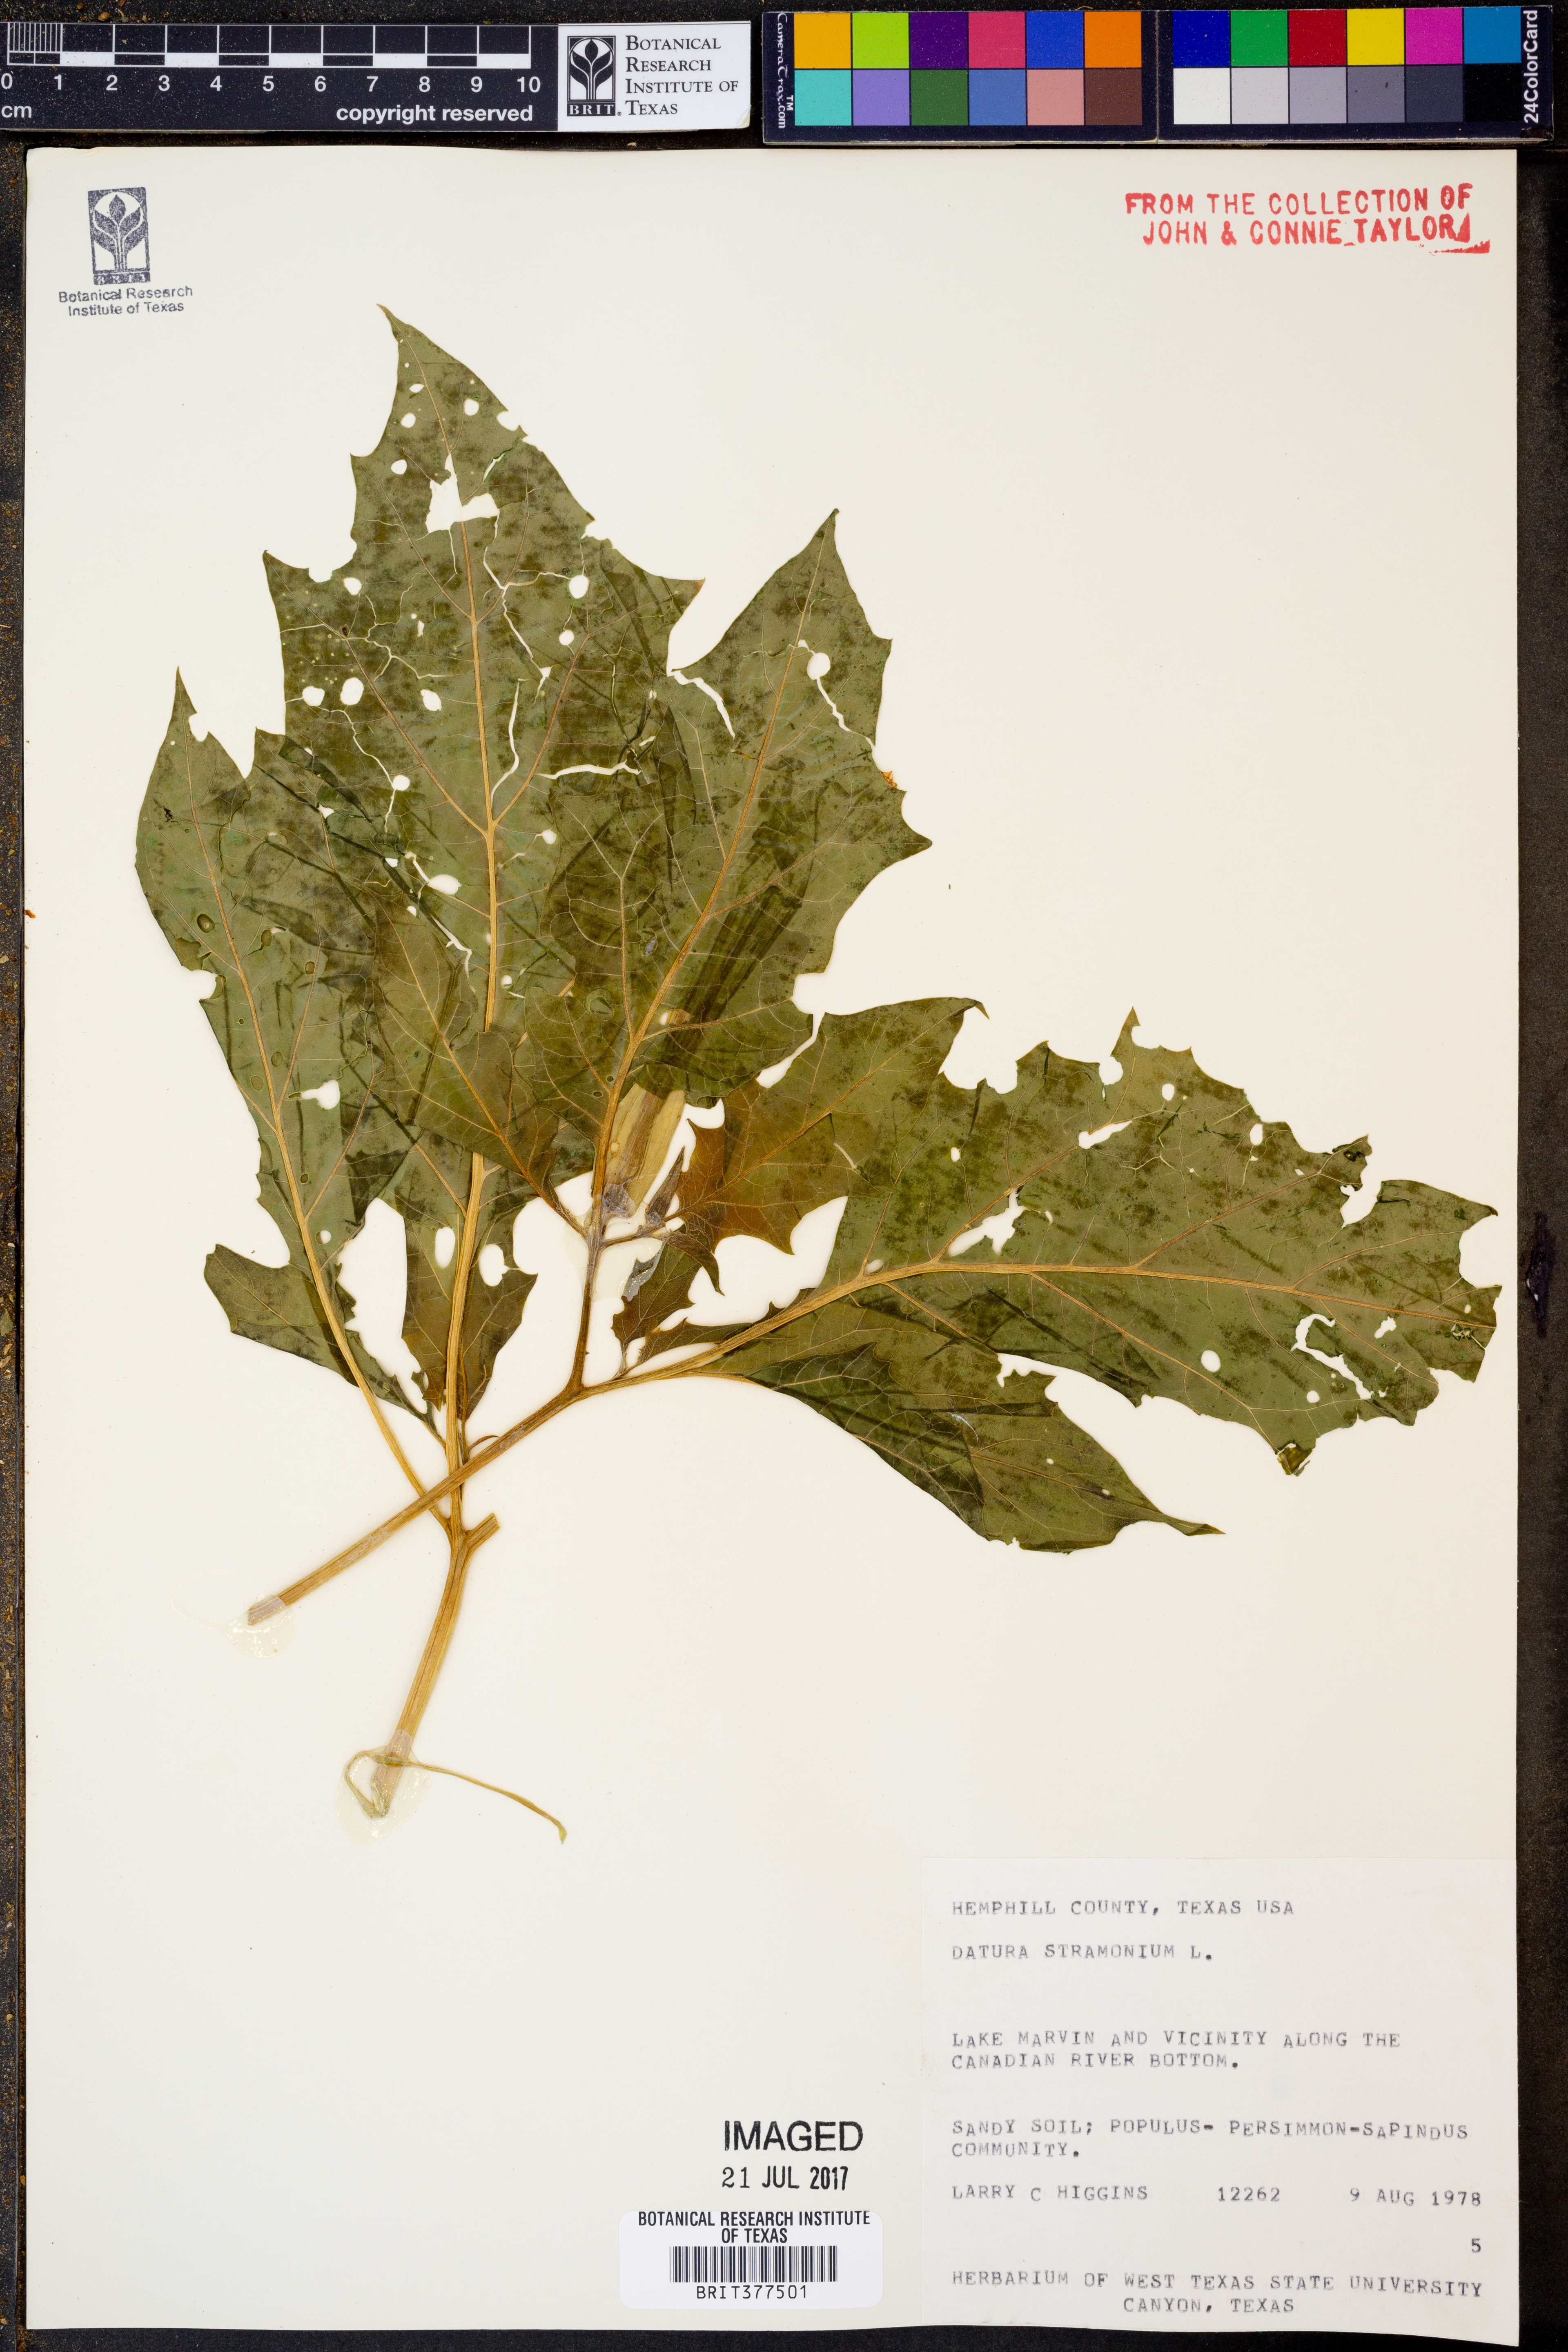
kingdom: Plantae
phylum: Tracheophyta
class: Magnoliopsida
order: Solanales
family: Solanaceae
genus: Datura
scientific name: Datura stramonium
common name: Thorn-apple
